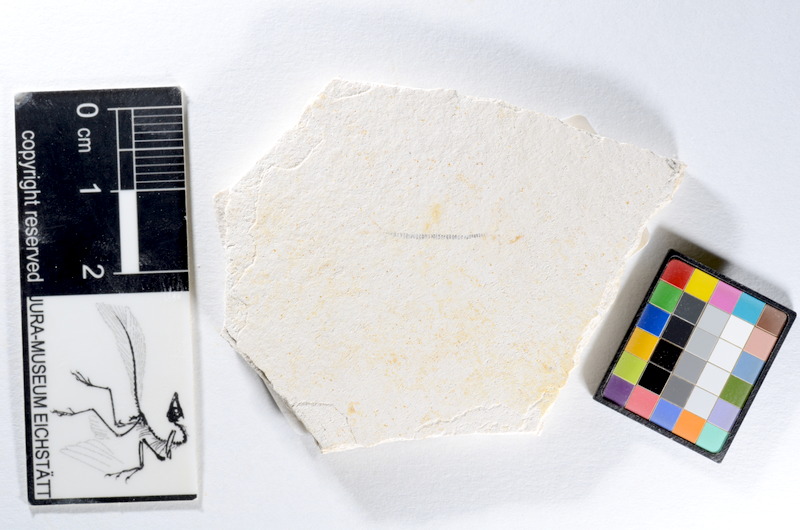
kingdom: Animalia
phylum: Chordata
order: Salmoniformes
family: Orthogonikleithridae
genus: Orthogonikleithrus
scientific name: Orthogonikleithrus hoelli
